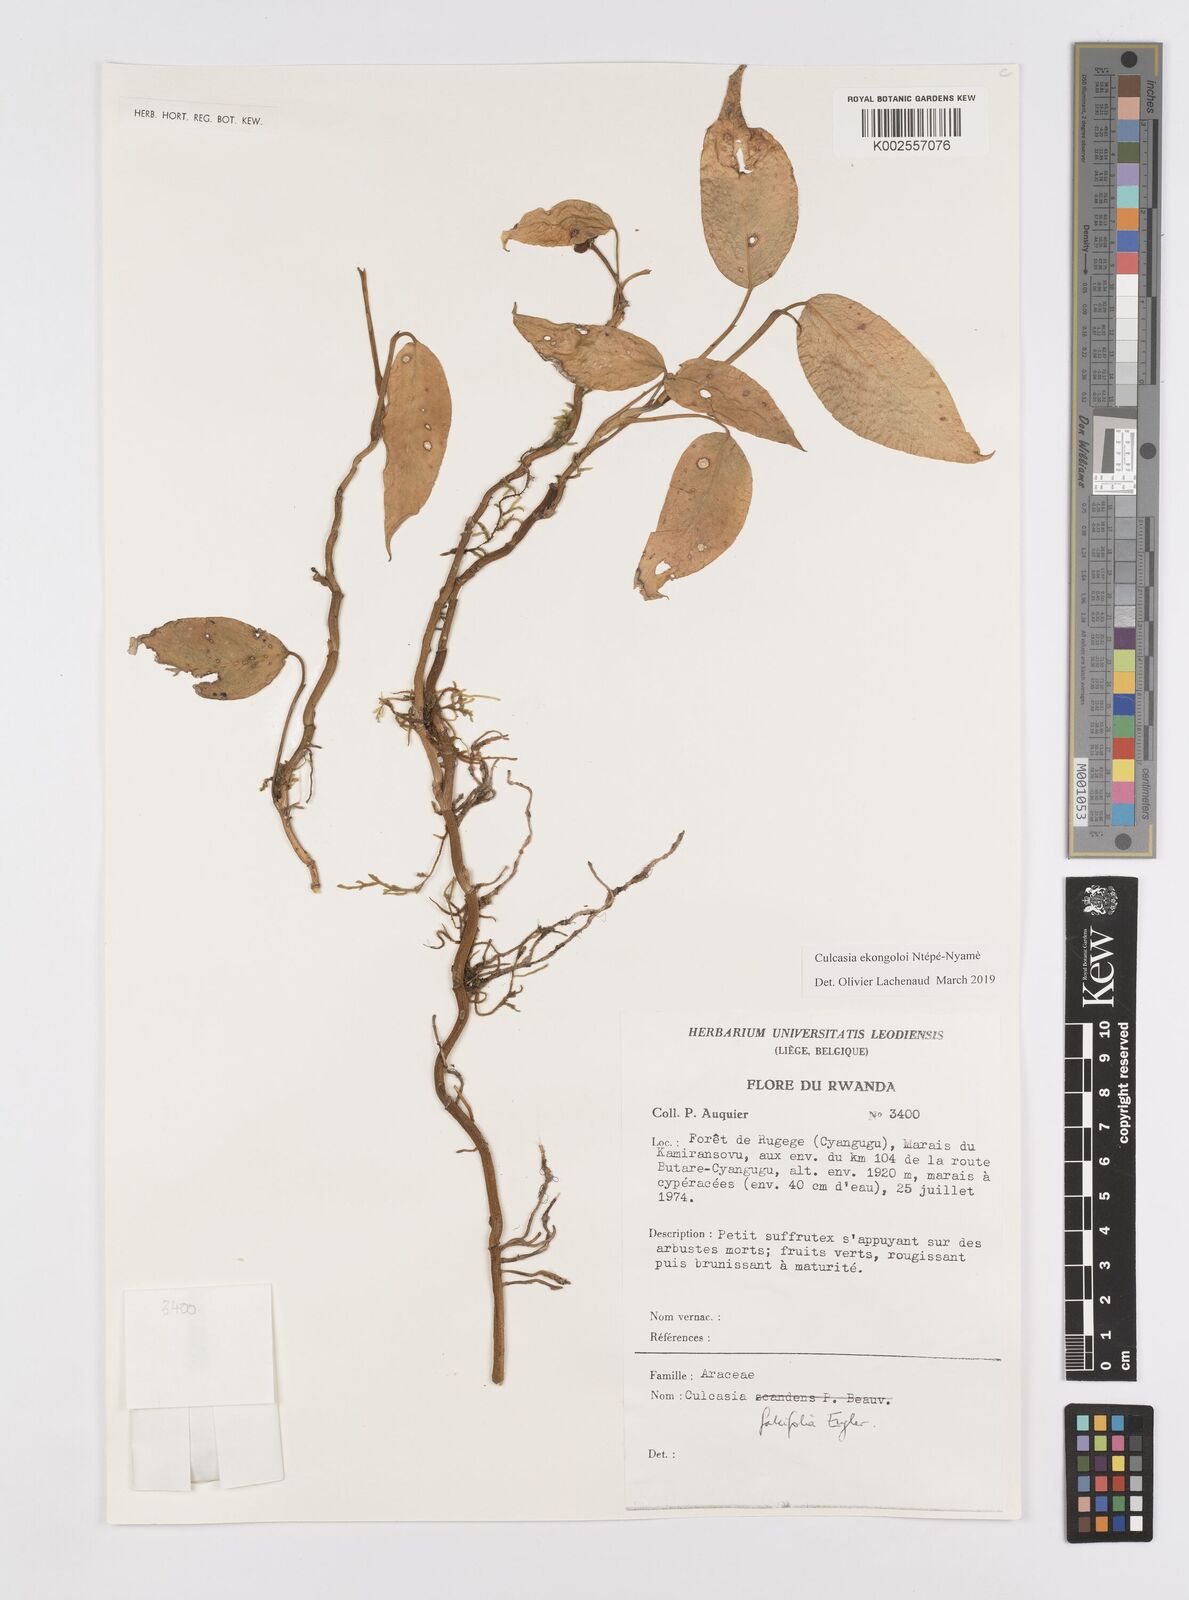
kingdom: Plantae
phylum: Tracheophyta
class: Liliopsida
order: Alismatales
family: Araceae
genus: Culcasia
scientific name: Culcasia ekongoloi
